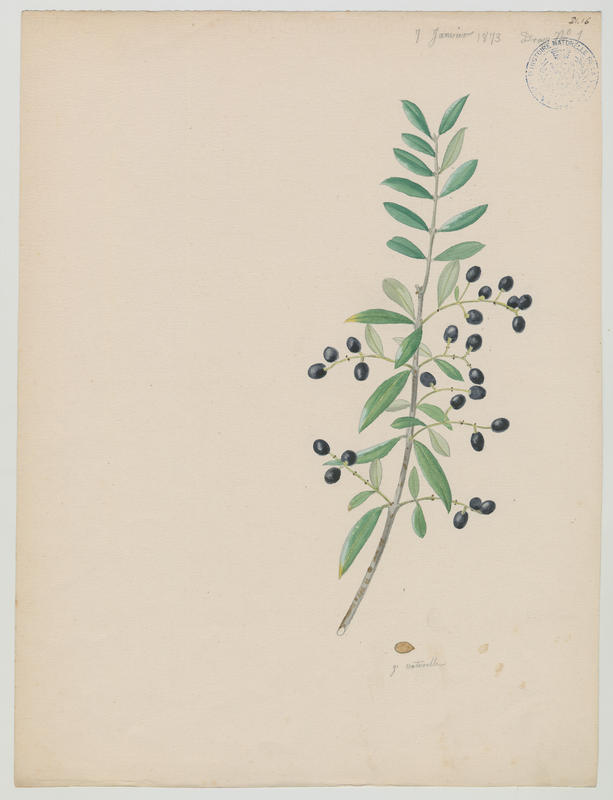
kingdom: Plantae
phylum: Tracheophyta
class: Magnoliopsida
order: Lamiales
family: Oleaceae
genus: Olea
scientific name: Olea europaea
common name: Olive
